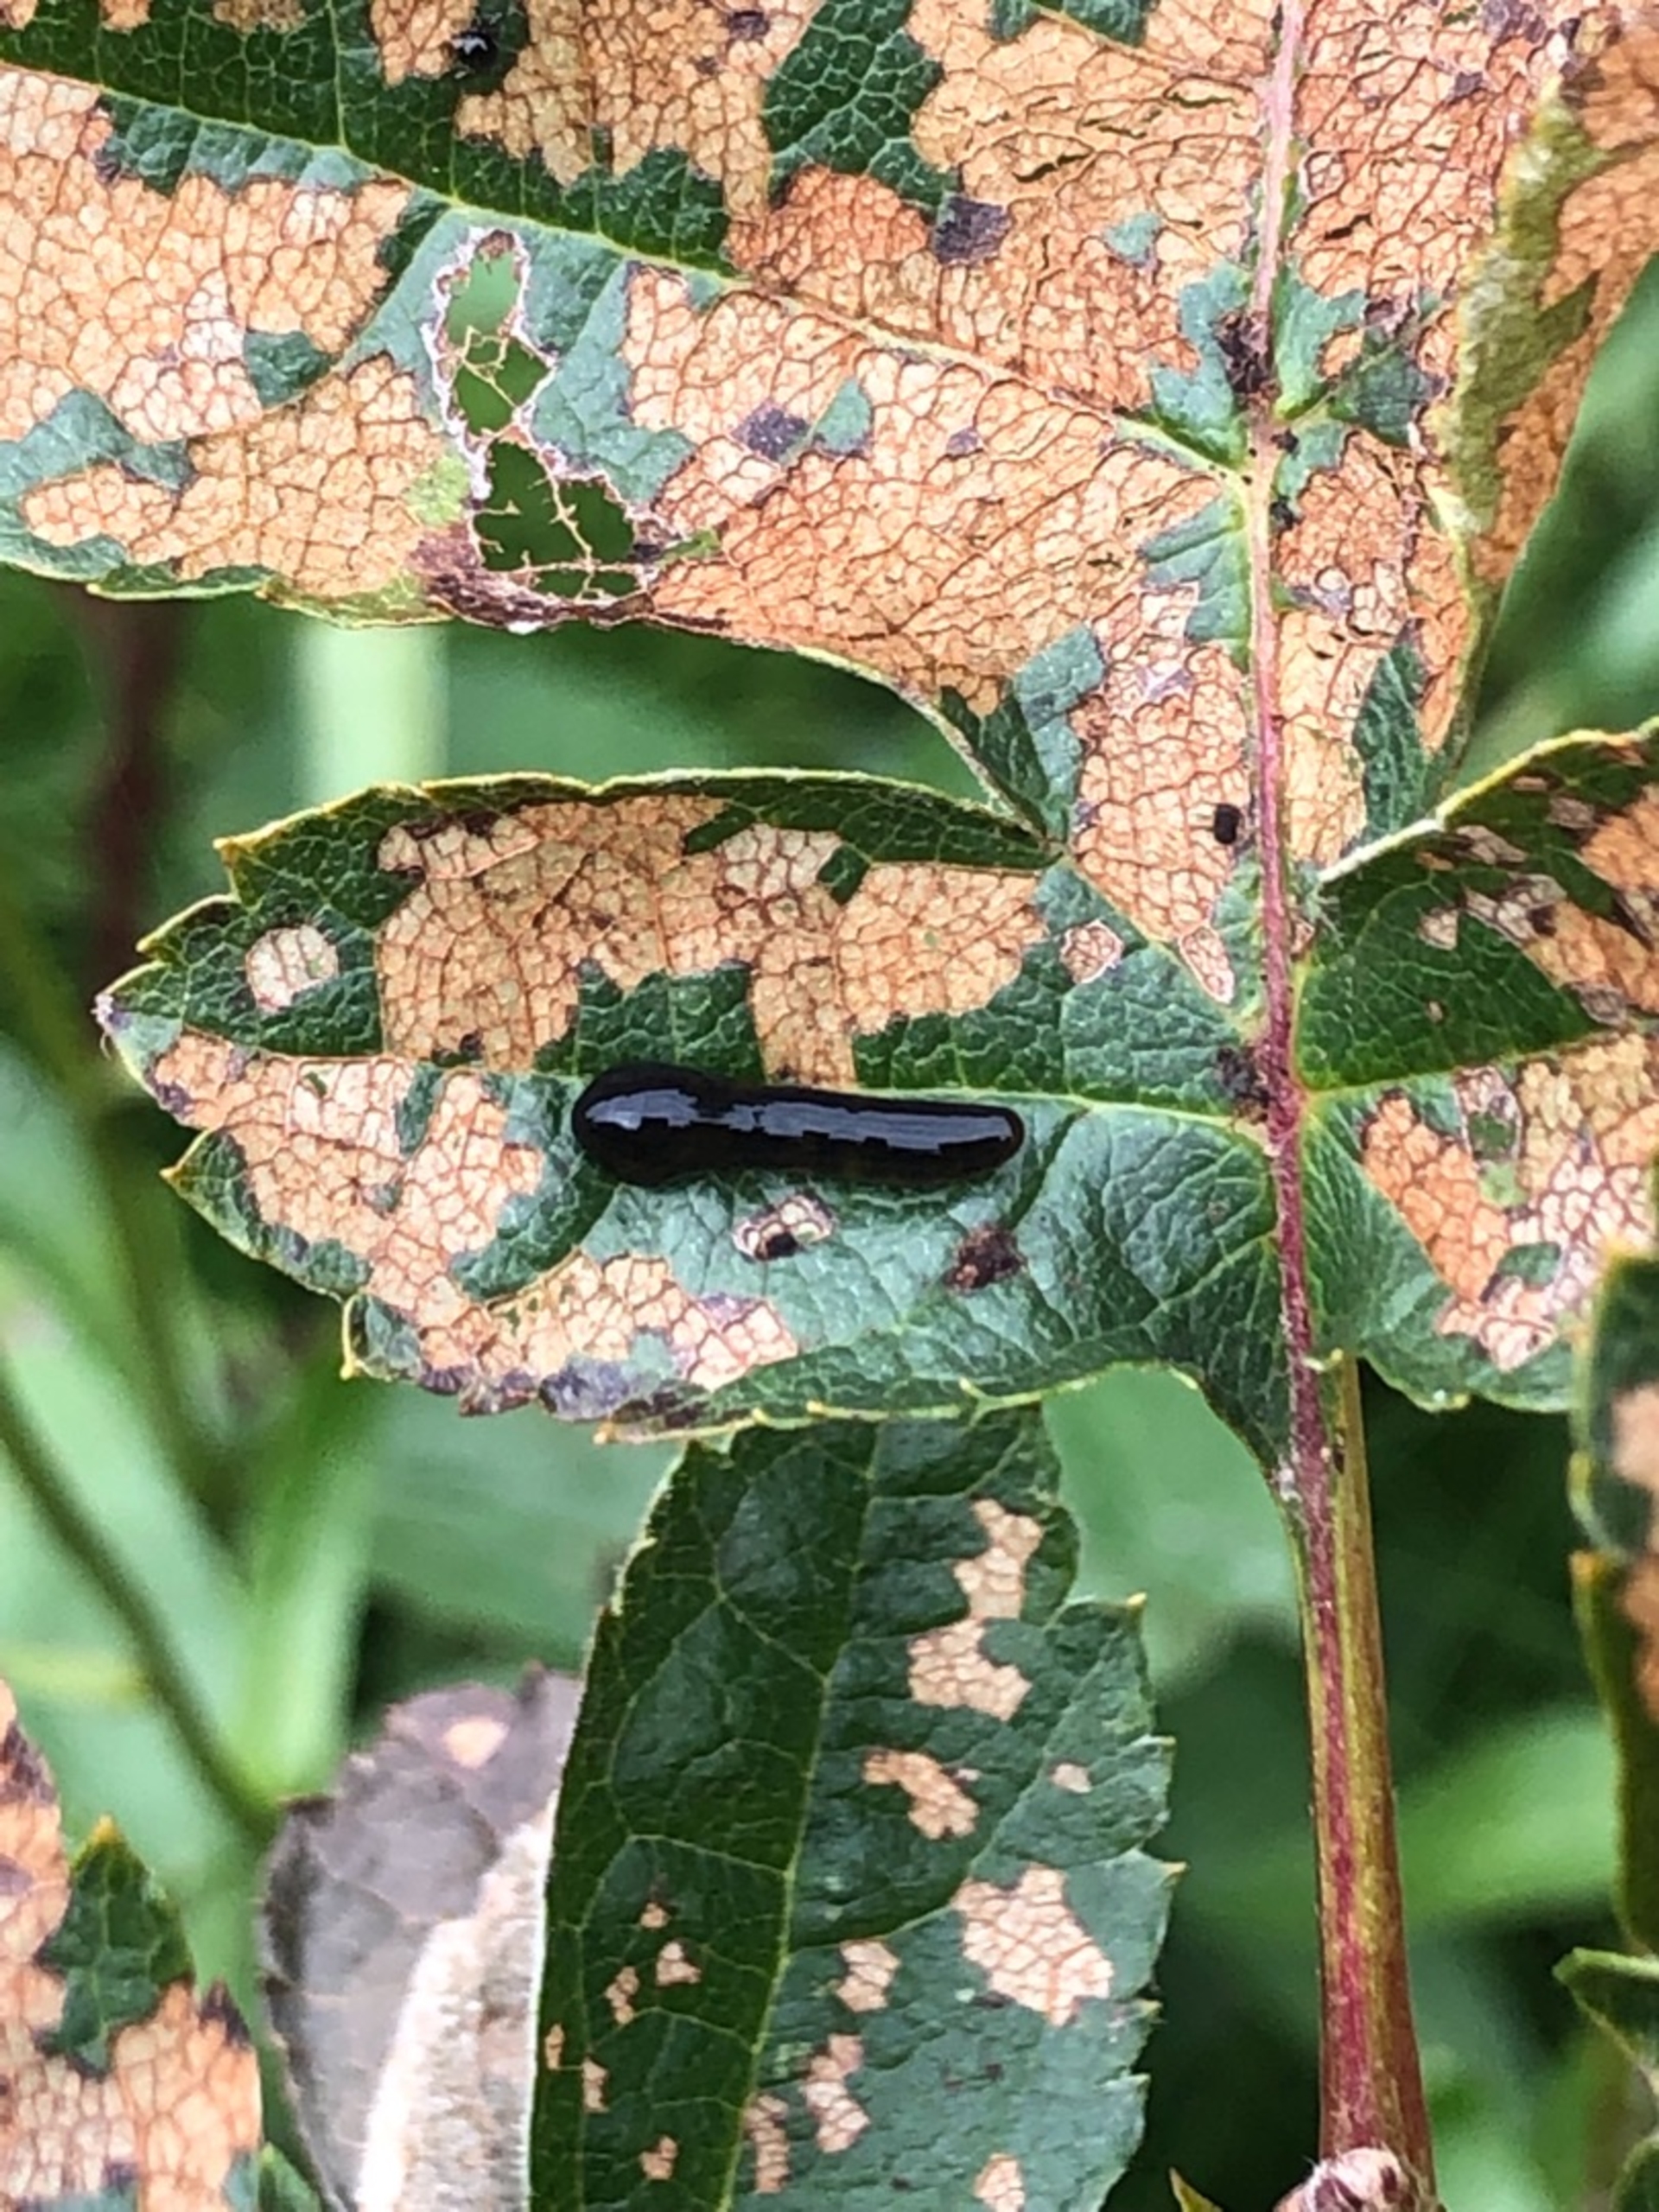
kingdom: Animalia
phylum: Arthropoda
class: Insecta
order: Hymenoptera
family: Tenthredinidae
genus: Caliroa
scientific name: Caliroa cerasi
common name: Frugttræbladhveps
